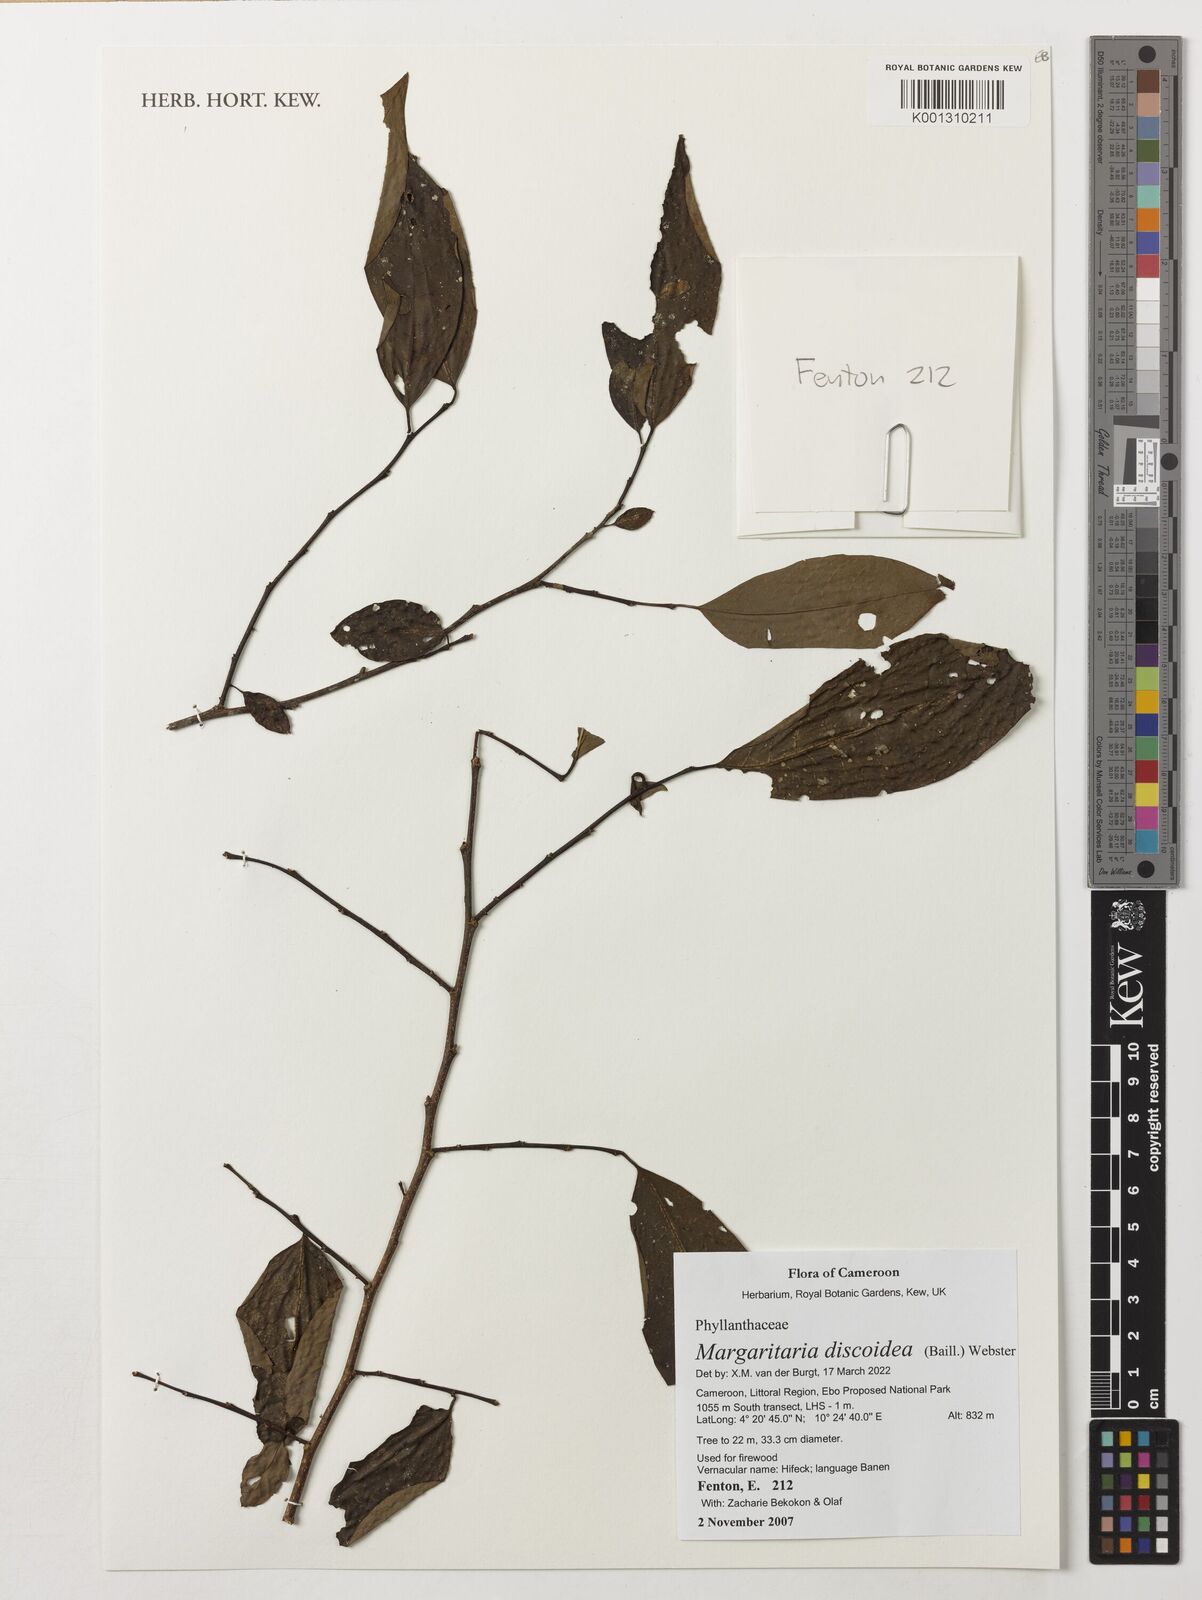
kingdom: Plantae
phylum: Tracheophyta
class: Magnoliopsida
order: Malpighiales
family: Phyllanthaceae
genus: Margaritaria
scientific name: Margaritaria discoidea
